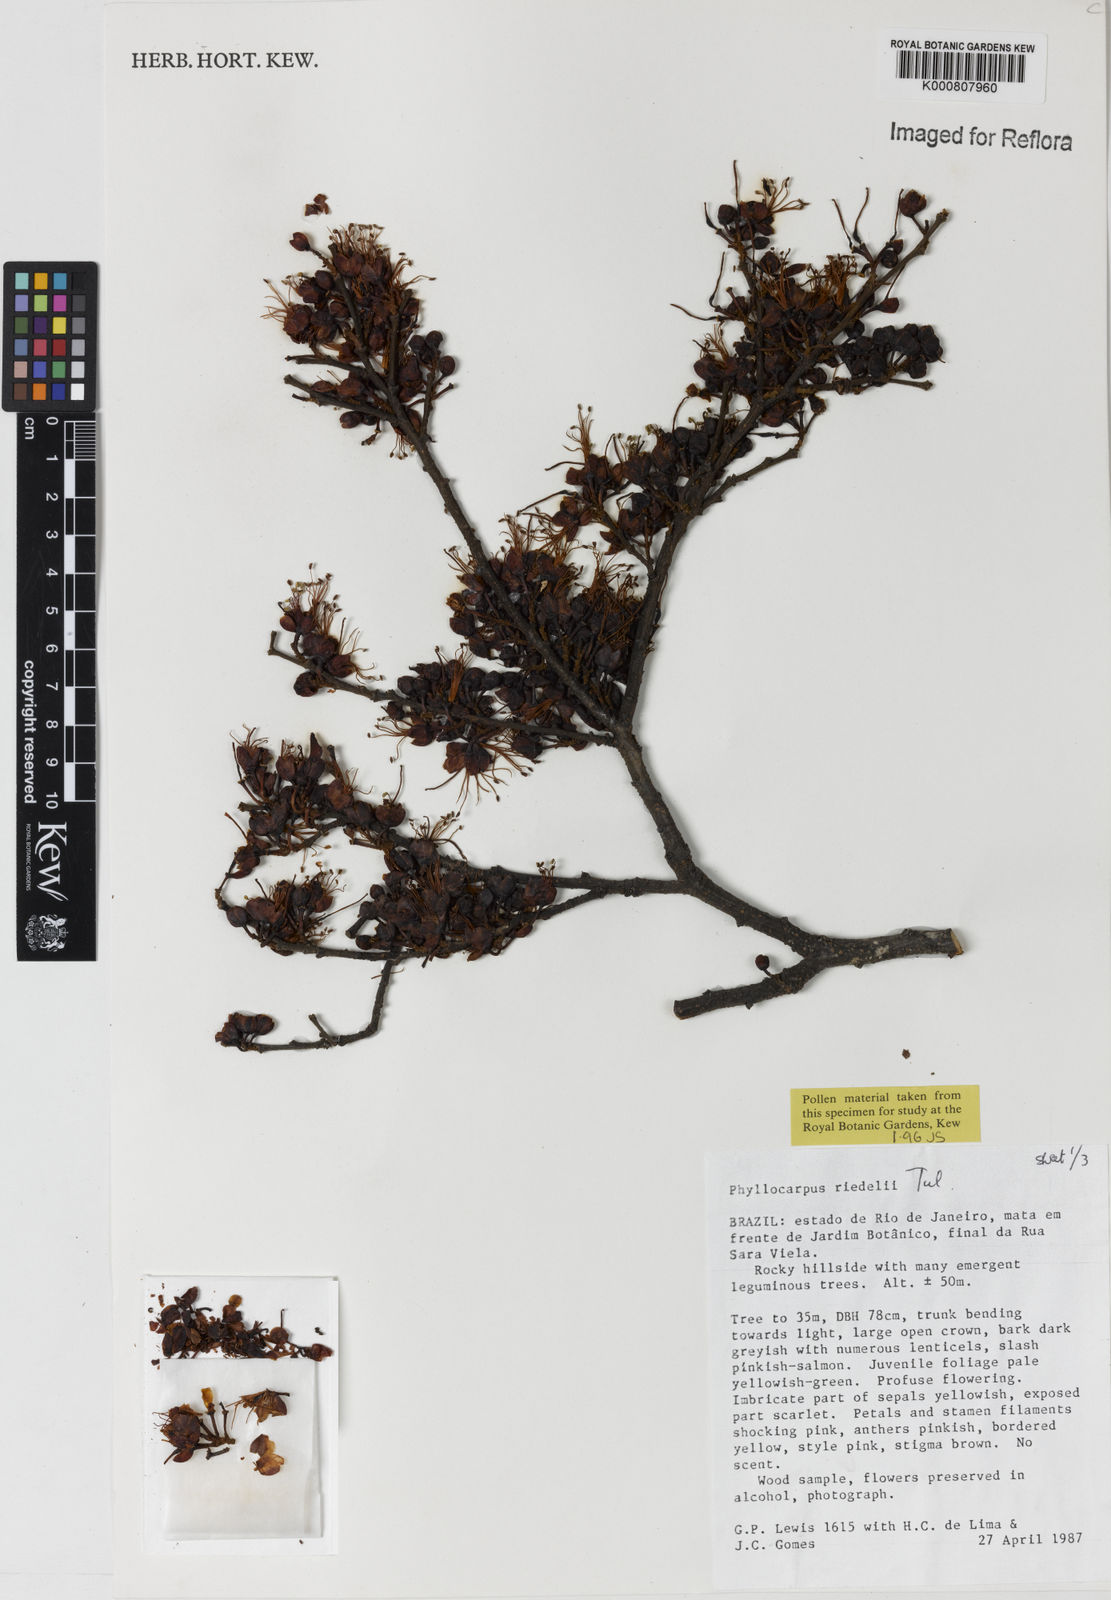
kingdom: Plantae
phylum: Tracheophyta
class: Magnoliopsida
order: Fabales
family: Fabaceae
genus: Barnebydendron
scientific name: Barnebydendron riedelii
